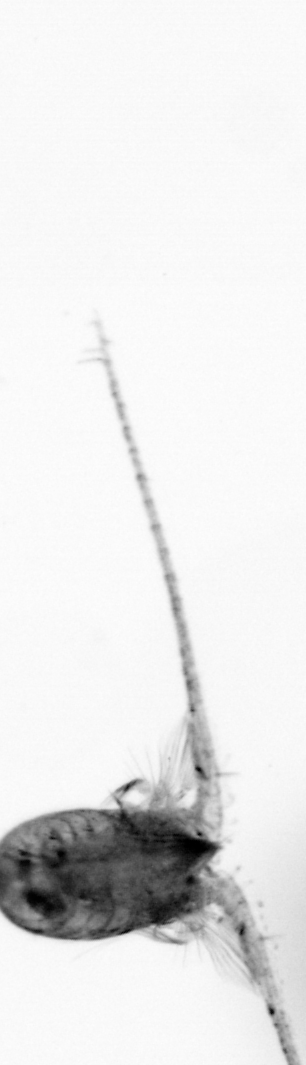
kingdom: Animalia
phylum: Arthropoda
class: Copepoda
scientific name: Copepoda
